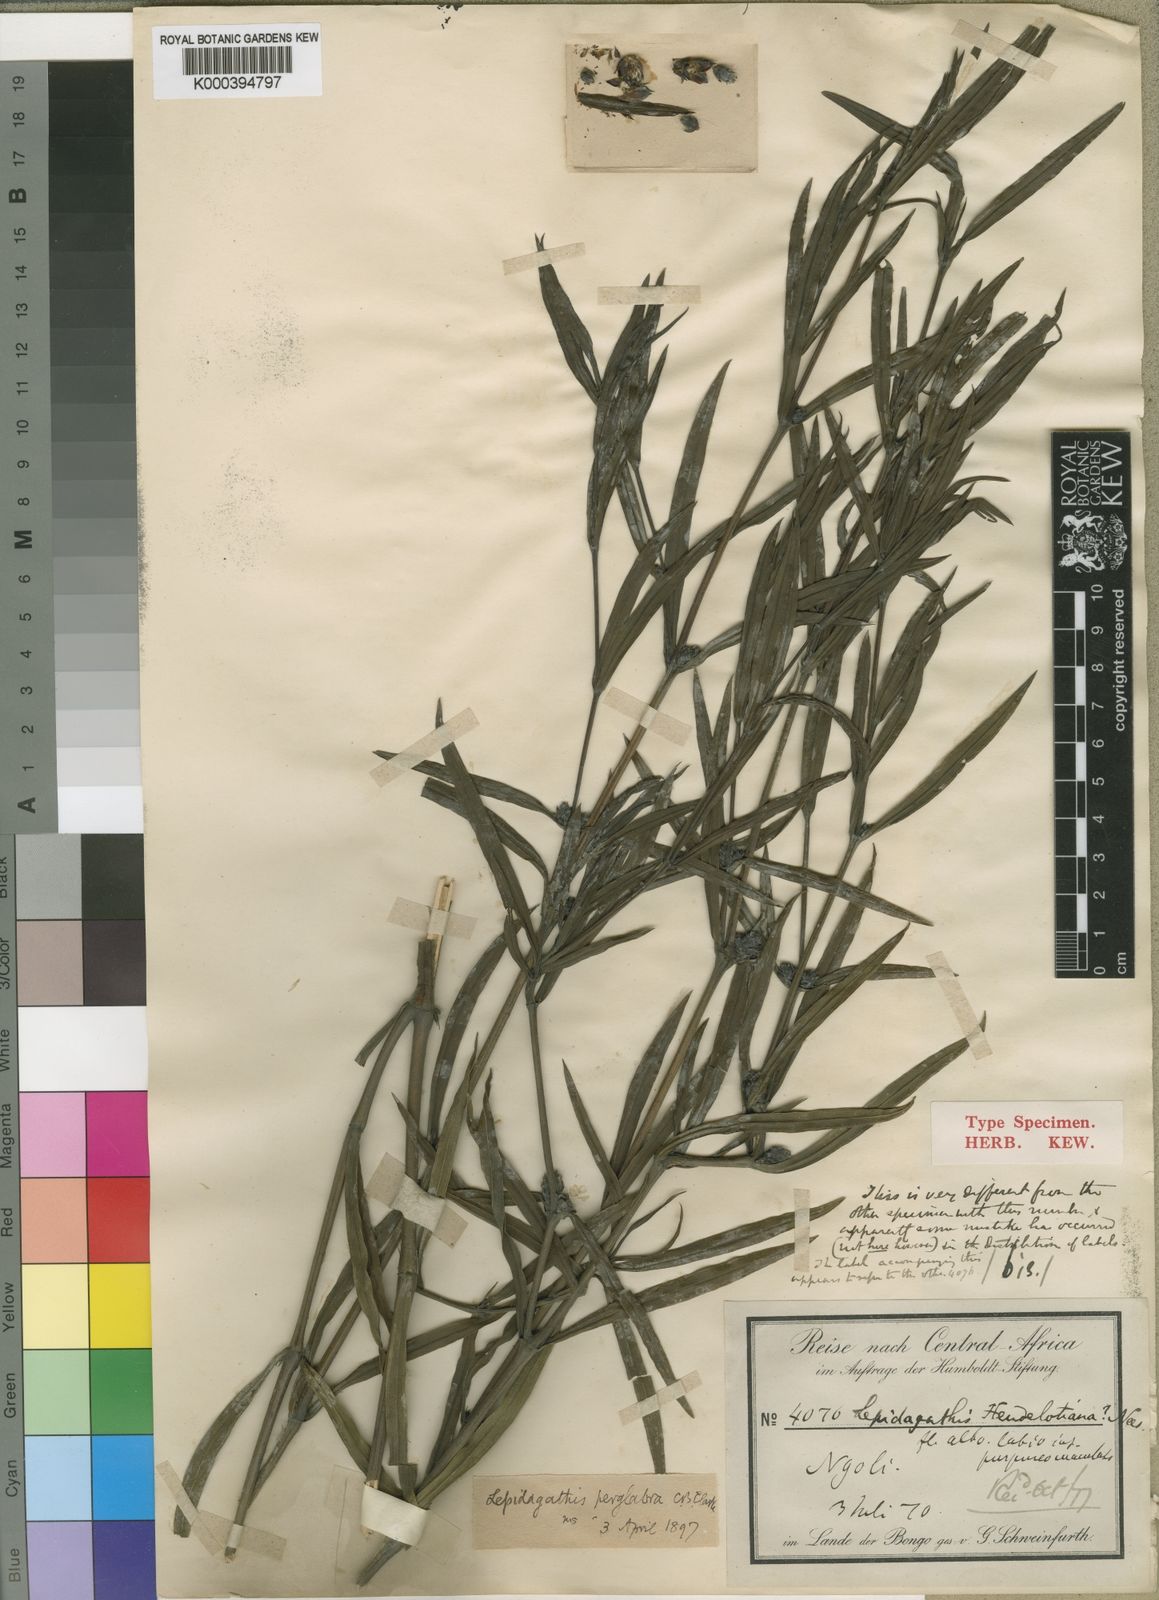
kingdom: Plantae
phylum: Tracheophyta
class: Magnoliopsida
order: Lamiales
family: Acanthaceae
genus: Lepidagathis
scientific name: Lepidagathis peniculifera
